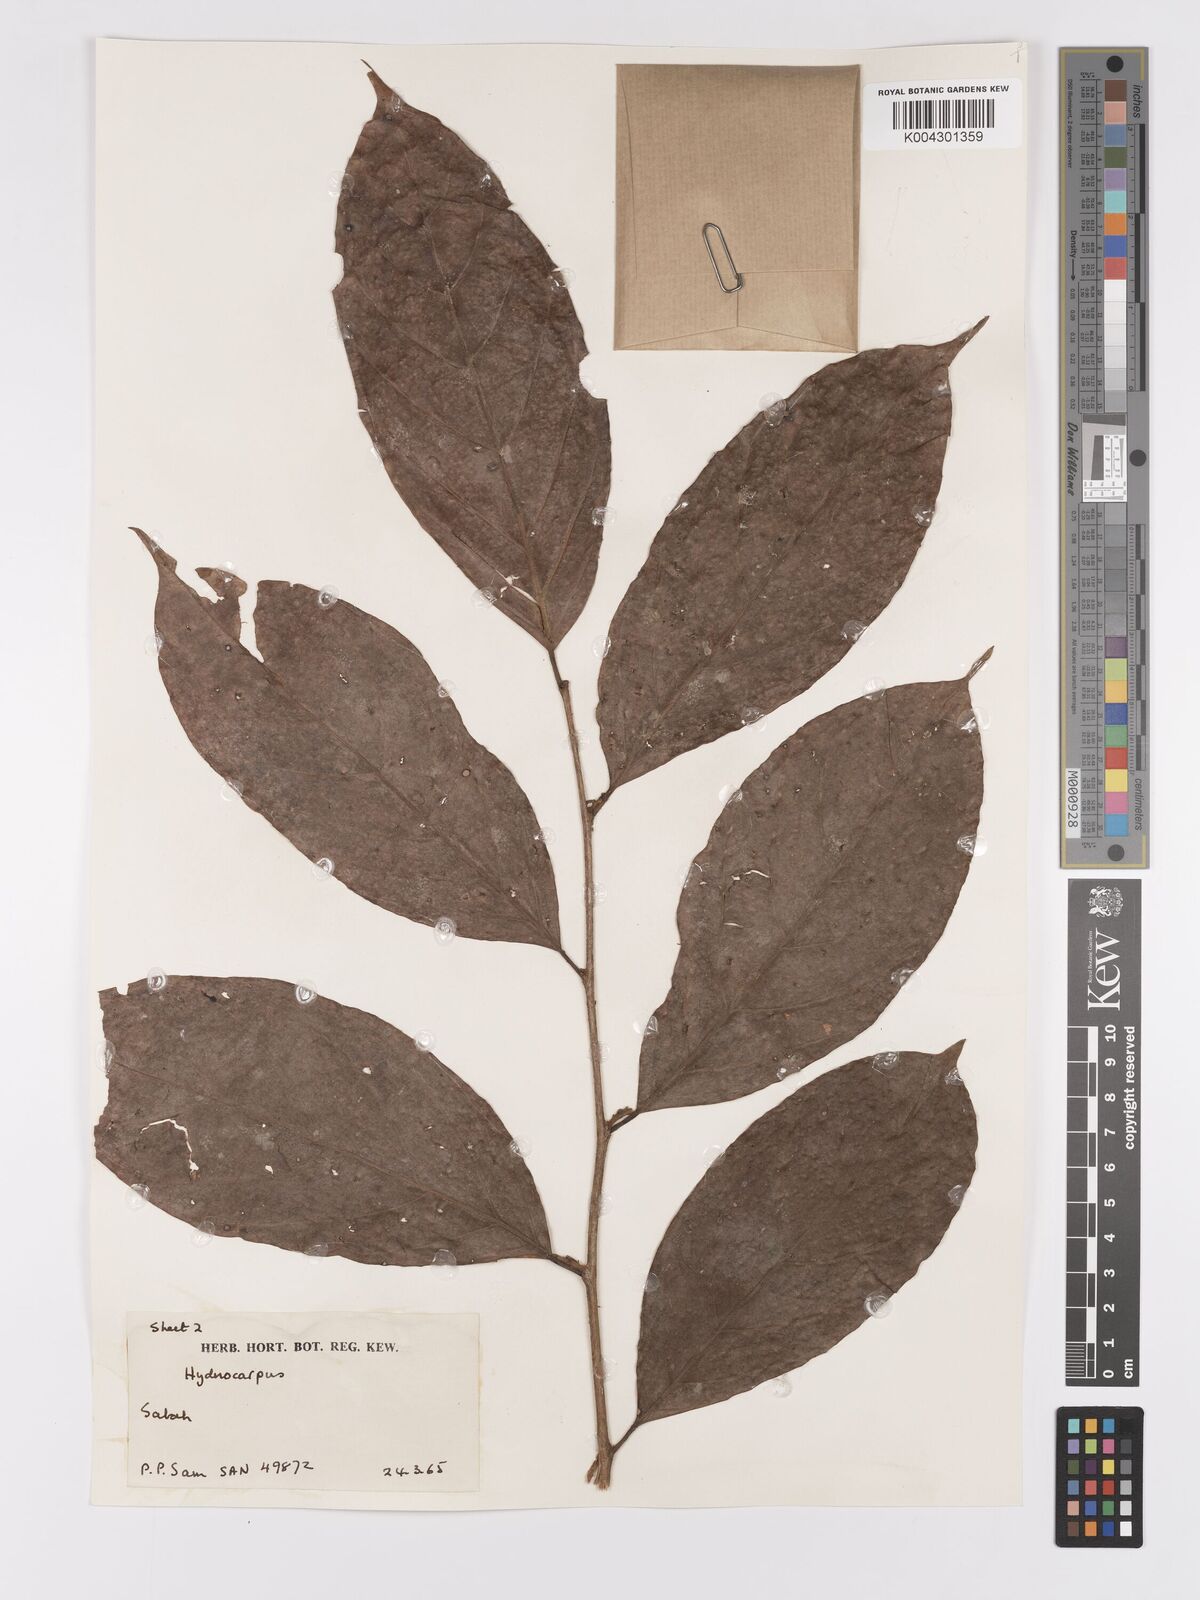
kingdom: Plantae
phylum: Tracheophyta
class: Magnoliopsida
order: Malpighiales
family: Achariaceae
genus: Hydnocarpus
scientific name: Hydnocarpus
